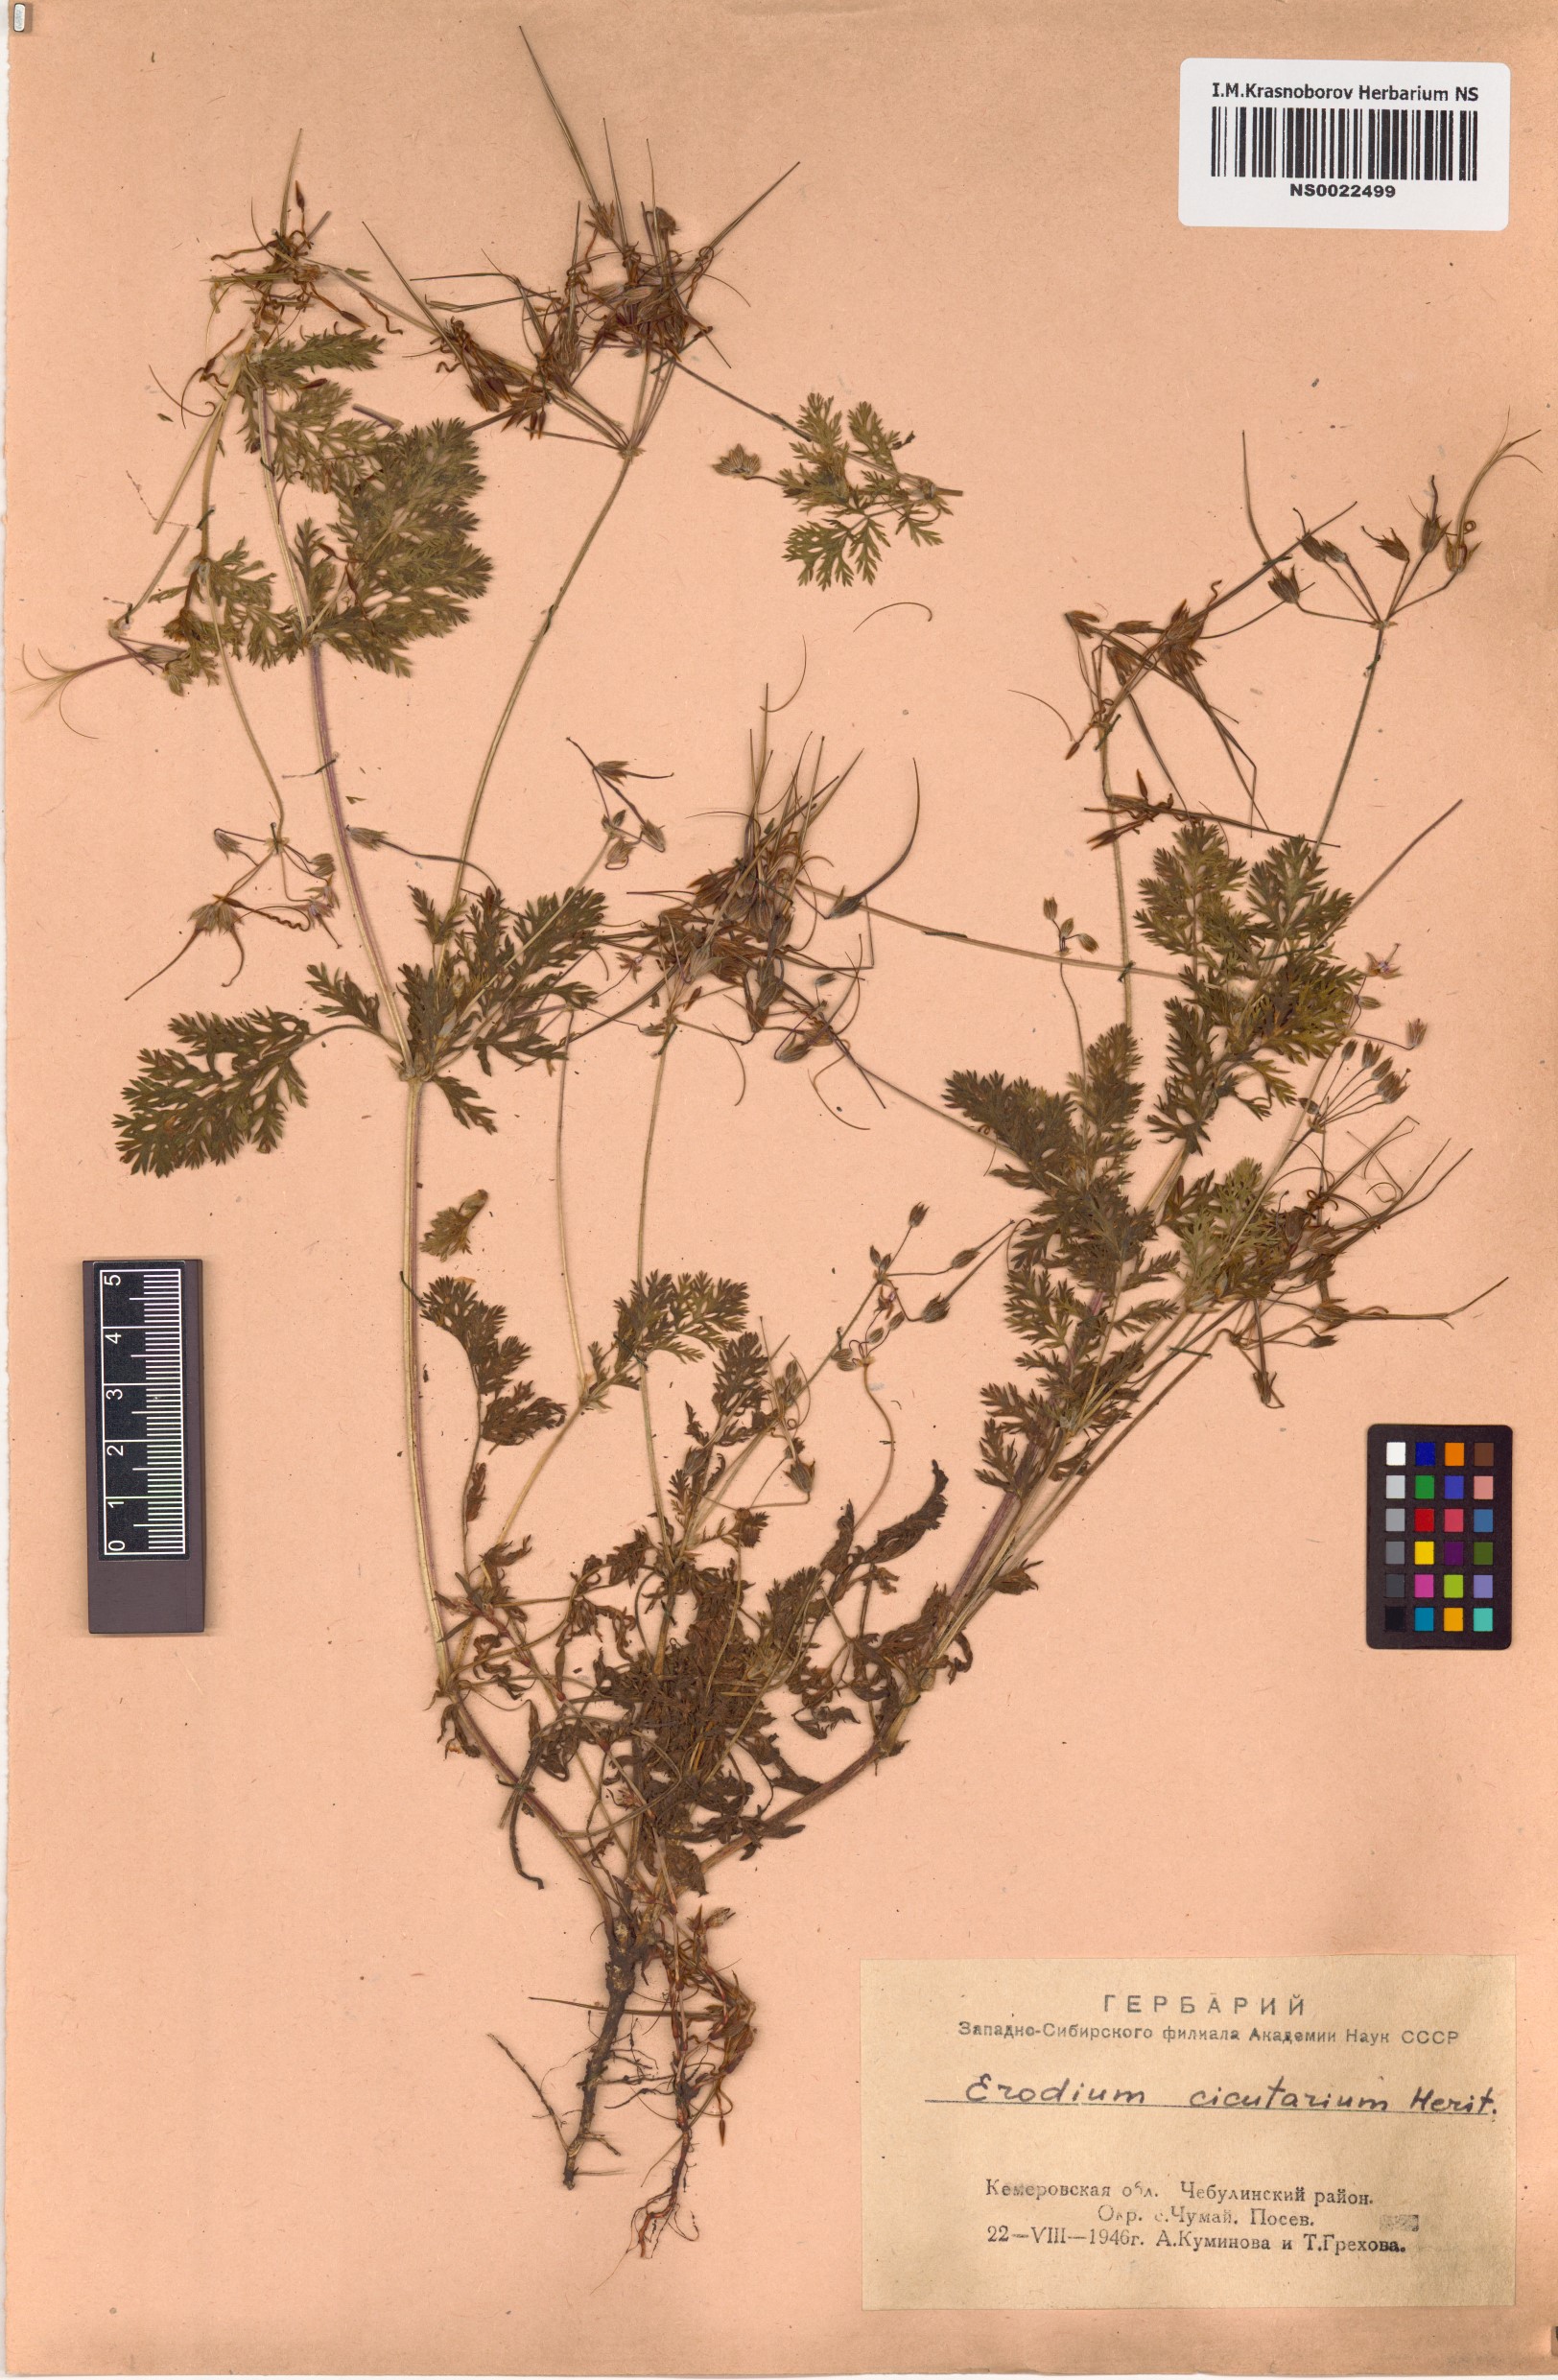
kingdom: Plantae
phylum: Tracheophyta
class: Magnoliopsida
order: Geraniales
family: Geraniaceae
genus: Erodium
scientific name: Erodium cicutarium
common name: Common stork's-bill
